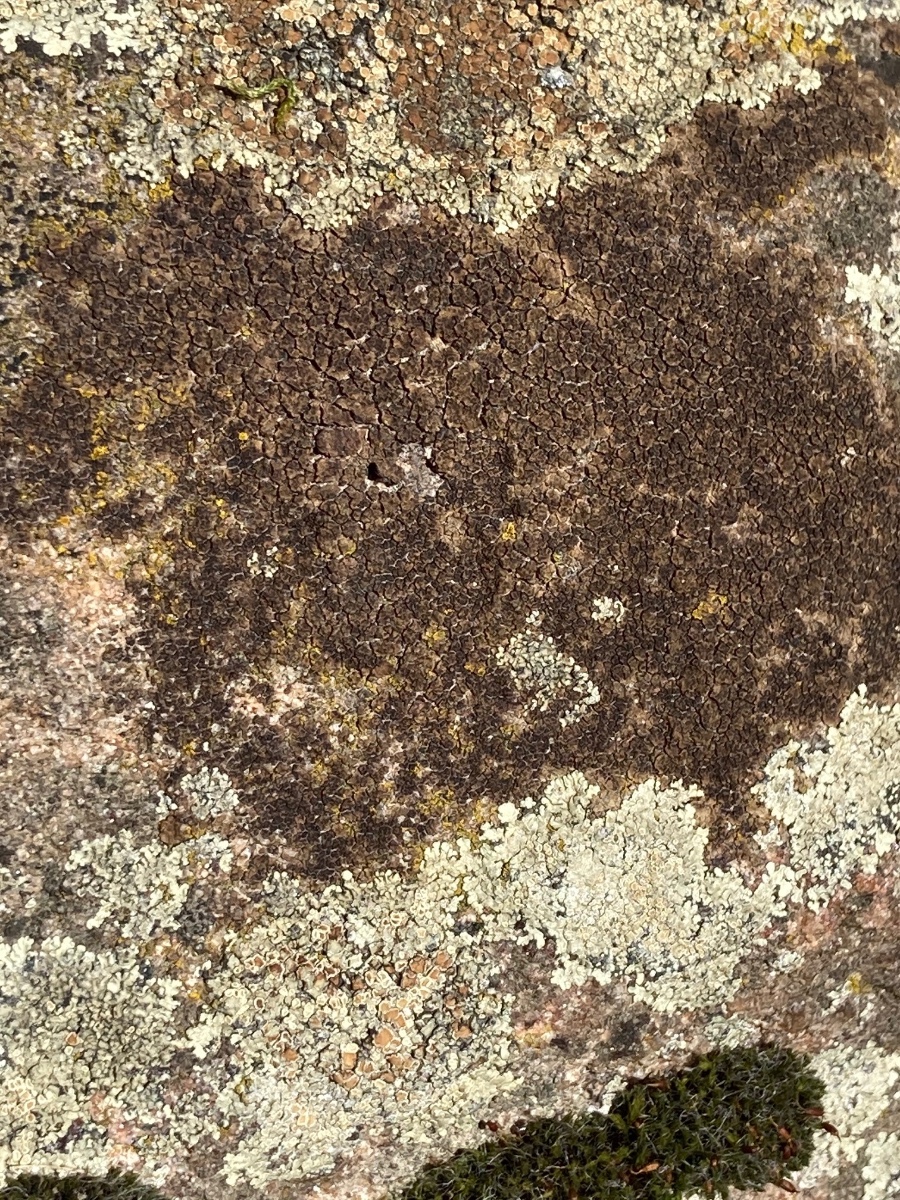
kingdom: Fungi
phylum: Ascomycota
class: Lecanoromycetes
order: Acarosporales
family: Acarosporaceae
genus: Acarospora
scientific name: Acarospora fuscata
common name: brun småsporelav
